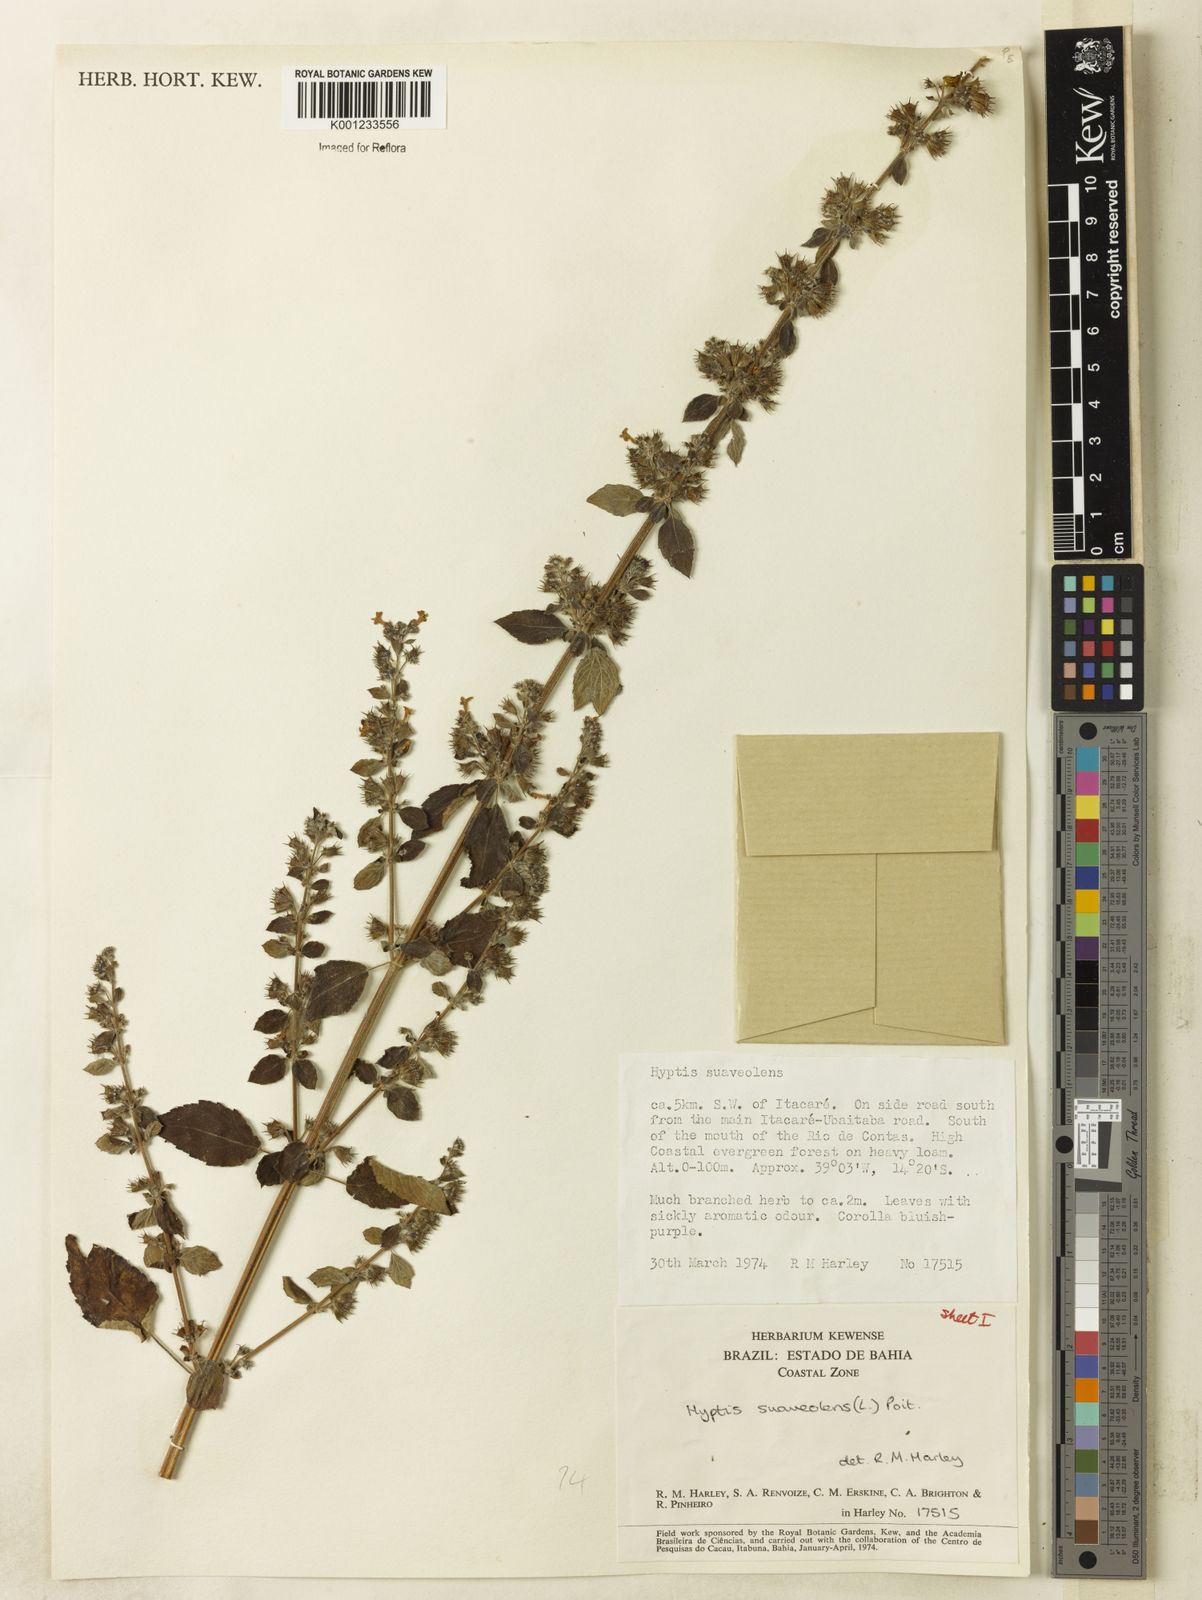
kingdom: Plantae
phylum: Tracheophyta
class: Magnoliopsida
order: Lamiales
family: Lamiaceae
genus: Mesosphaerum
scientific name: Mesosphaerum suaveolens
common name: Pignut
